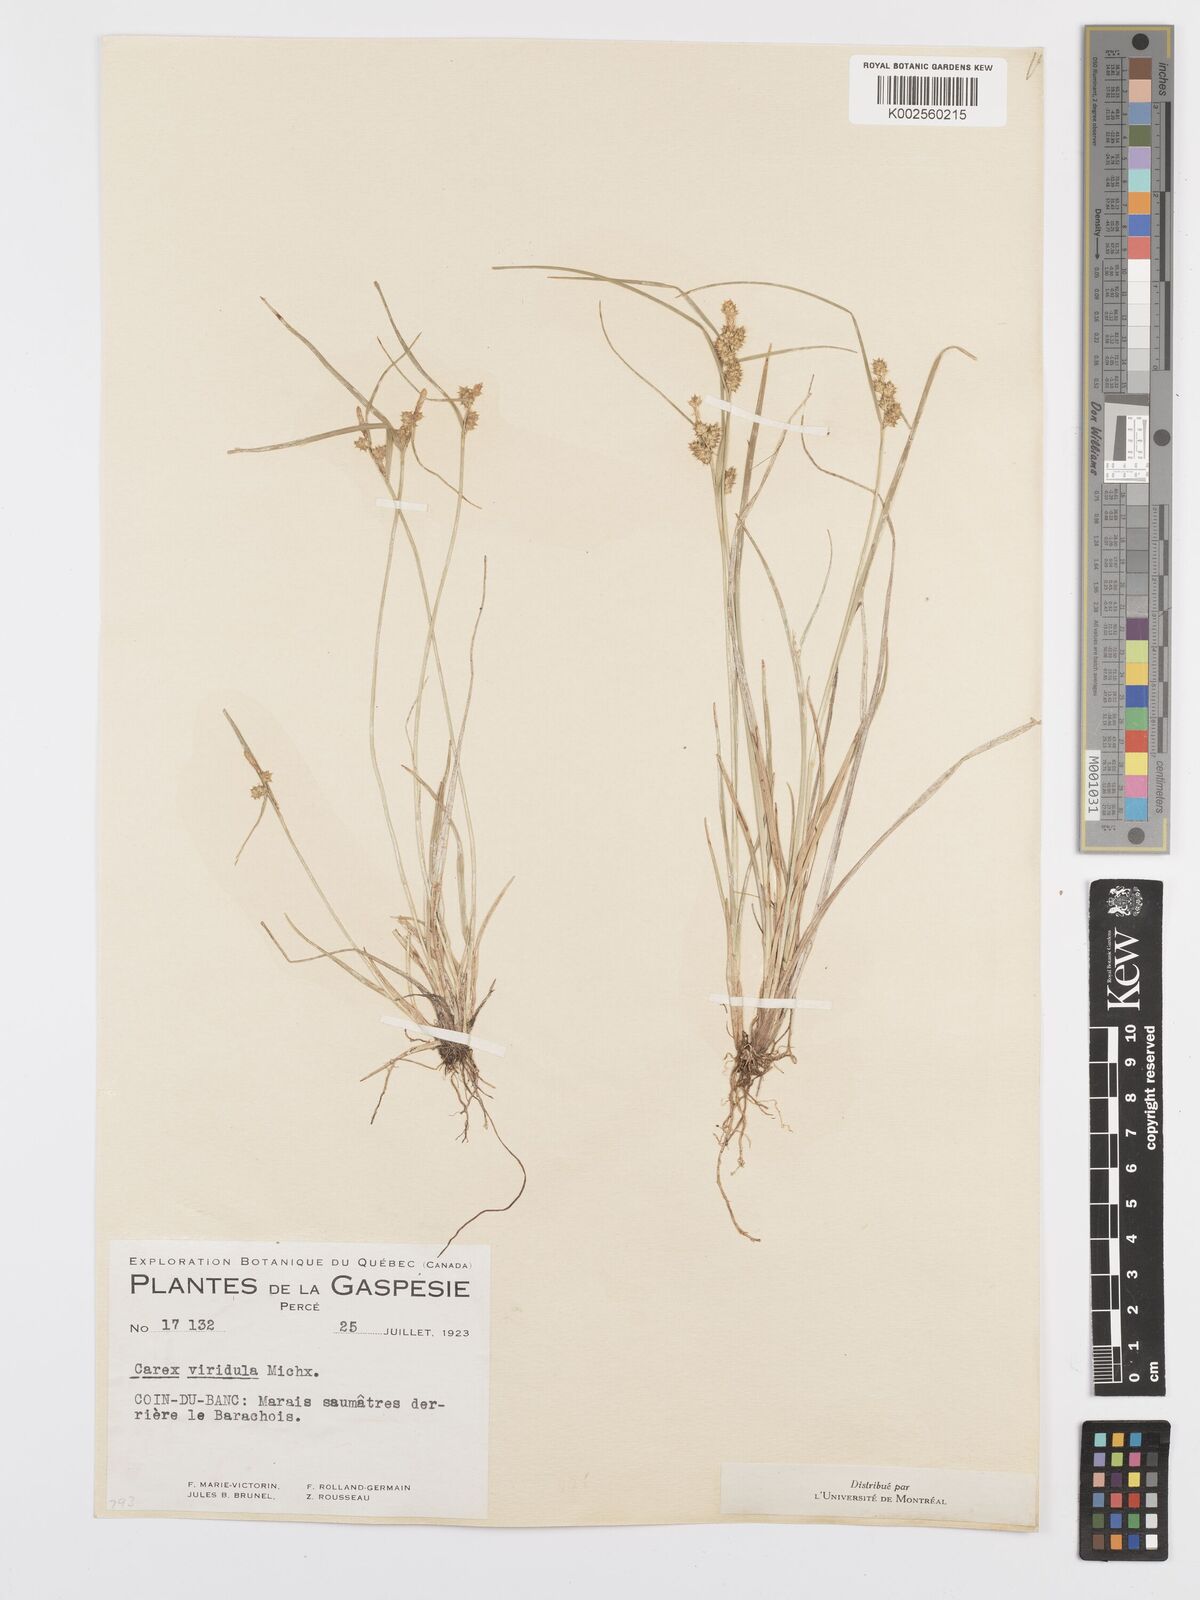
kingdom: Plantae
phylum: Tracheophyta
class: Liliopsida
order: Poales
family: Cyperaceae
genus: Carex
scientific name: Carex oederi
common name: Common & small-fruited yellow-sedge
